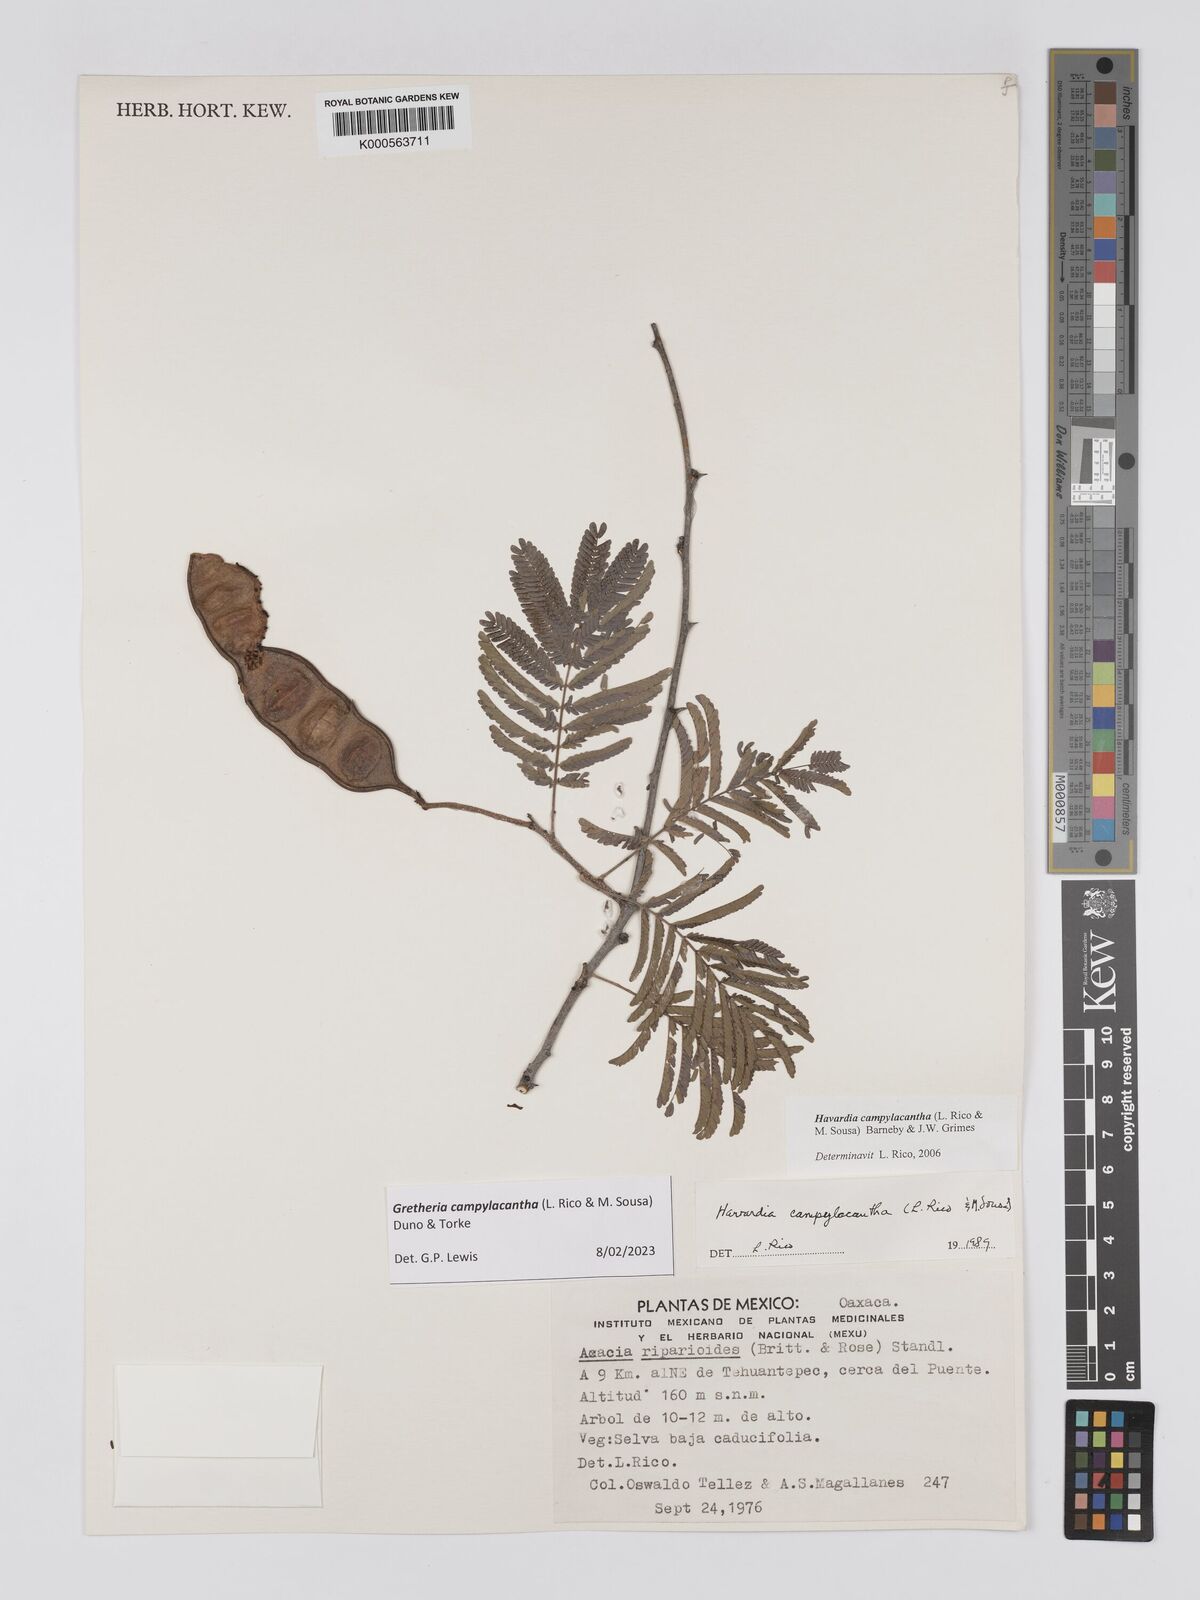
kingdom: Plantae
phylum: Tracheophyta
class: Magnoliopsida
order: Fabales
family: Fabaceae
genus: Havardia
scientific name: Havardia campylacantha
